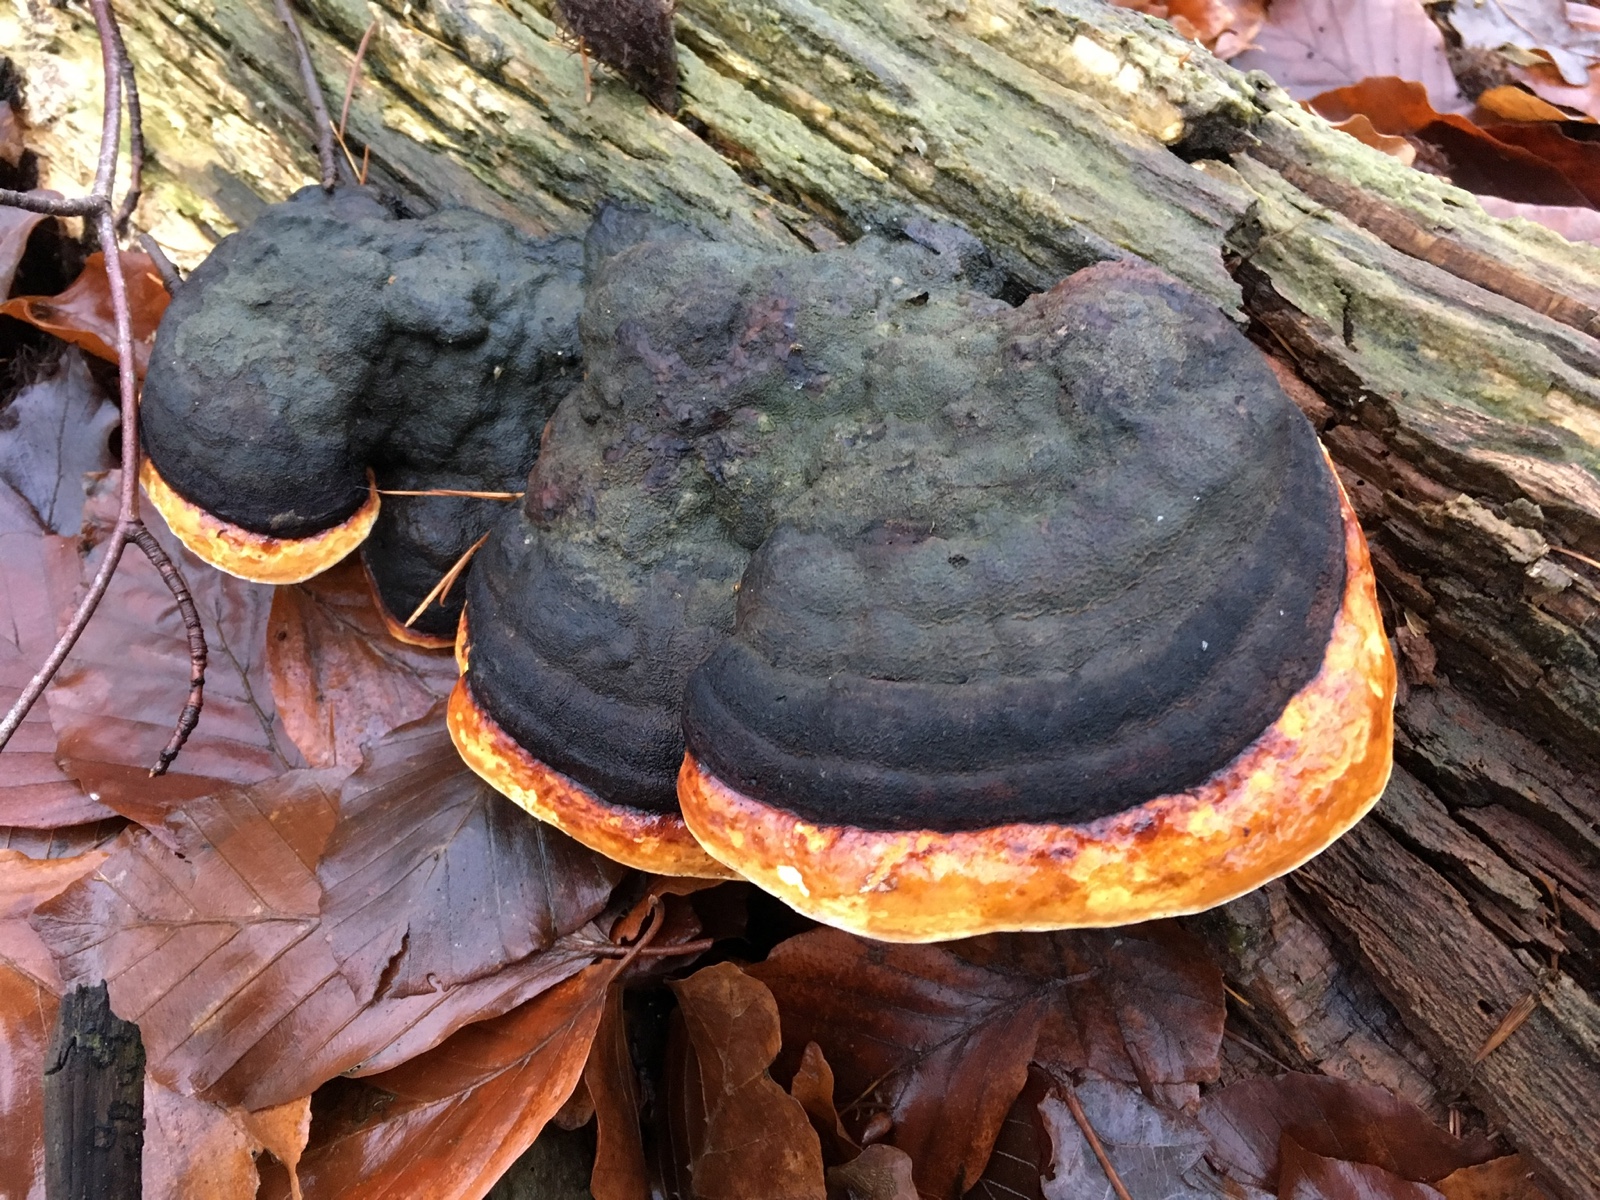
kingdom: Fungi
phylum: Basidiomycota
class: Agaricomycetes
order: Polyporales
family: Fomitopsidaceae
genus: Fomitopsis
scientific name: Fomitopsis pinicola
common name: randbæltet hovporesvamp
